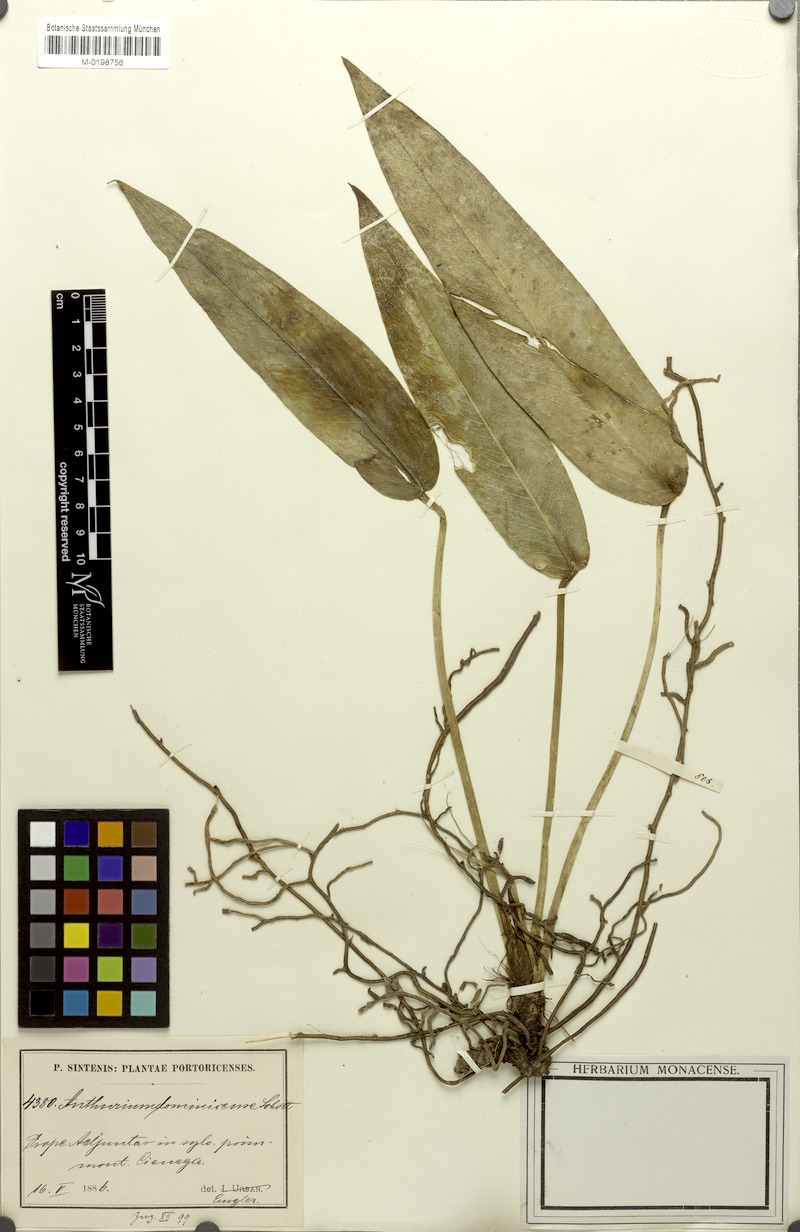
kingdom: Plantae
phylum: Tracheophyta
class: Liliopsida
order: Alismatales
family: Araceae
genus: Anthurium
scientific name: Anthurium dominicense
